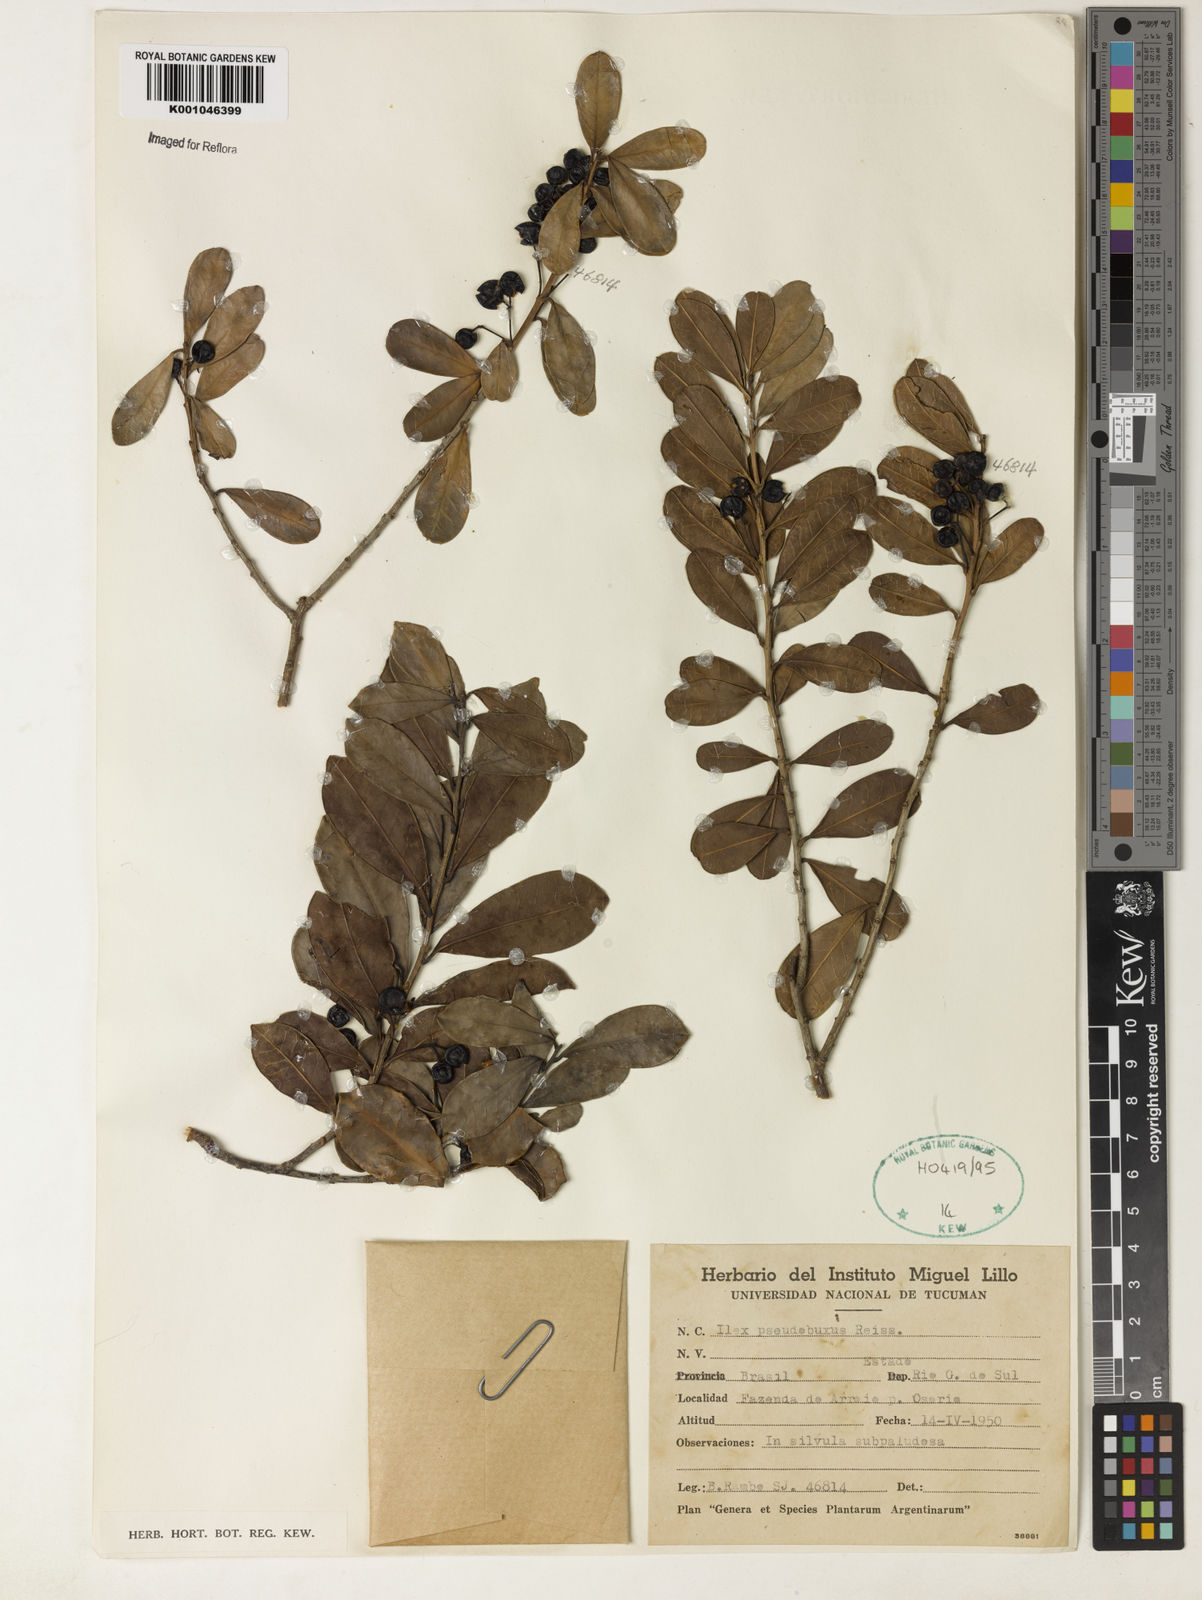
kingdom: Plantae
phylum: Tracheophyta
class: Magnoliopsida
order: Aquifoliales
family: Aquifoliaceae
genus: Ilex
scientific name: Ilex pseudobuxus
